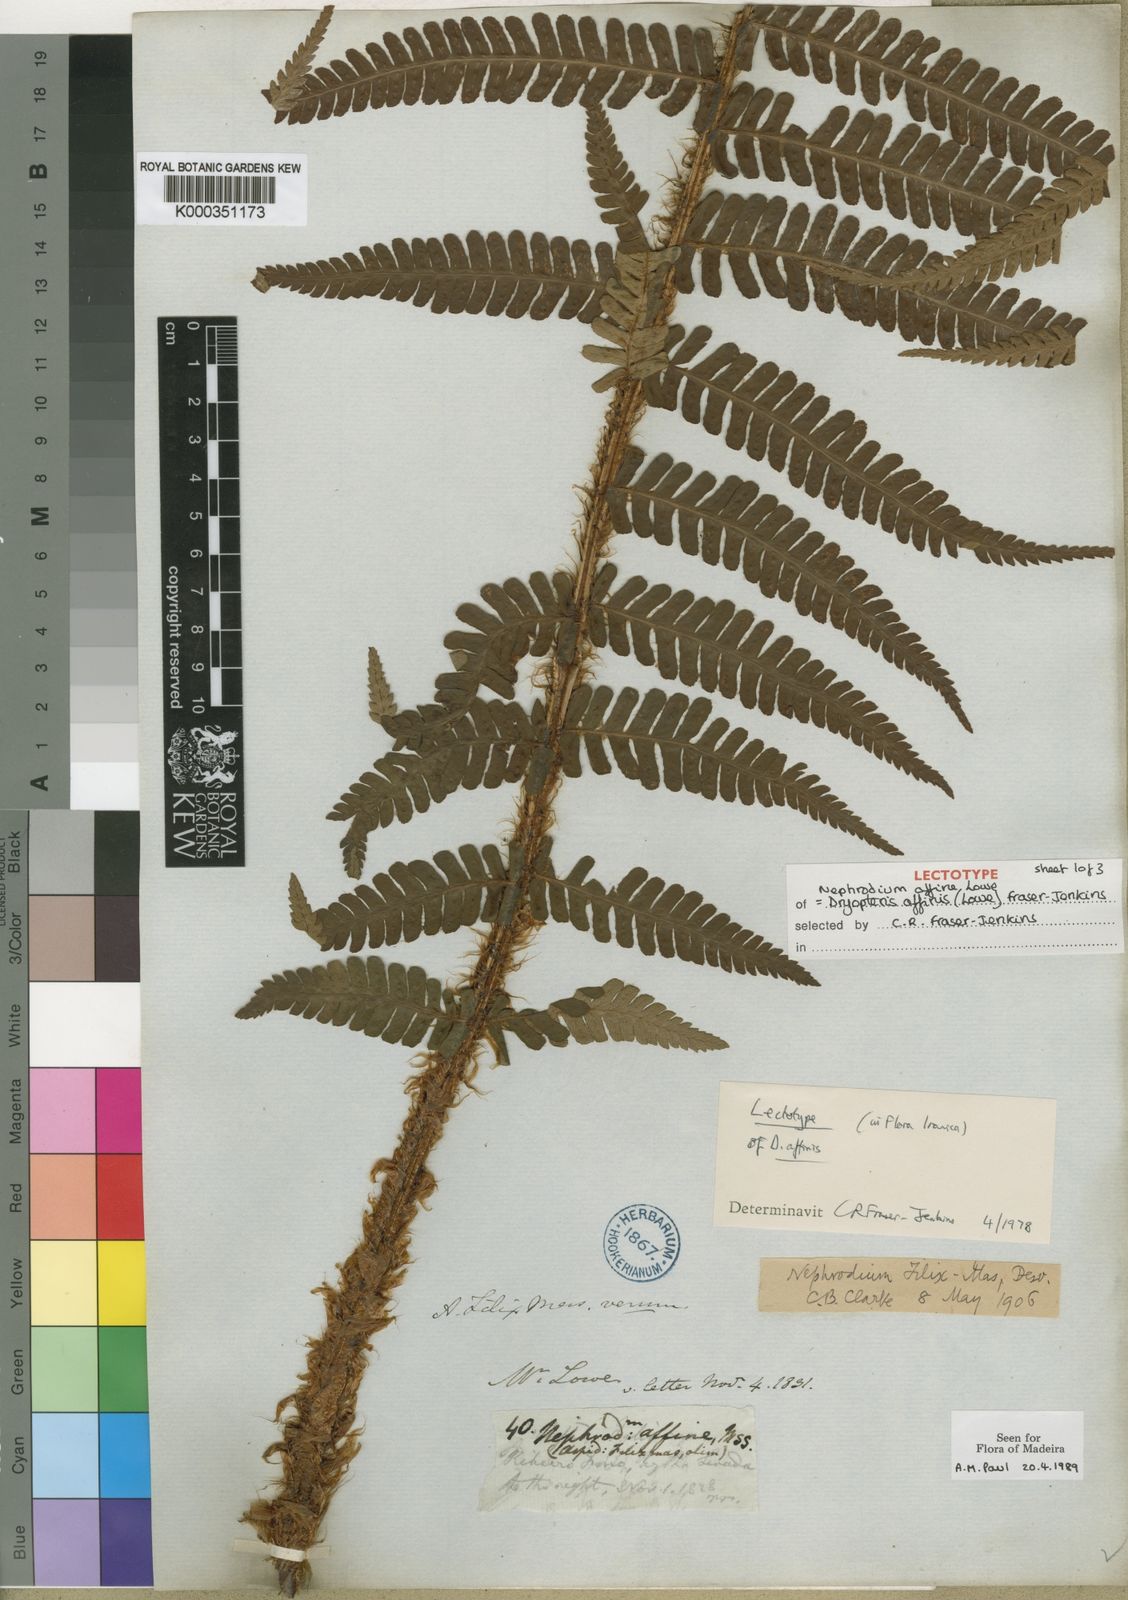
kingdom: Plantae
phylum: Tracheophyta
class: Polypodiopsida
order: Polypodiales
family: Dryopteridaceae
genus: Dryopteris
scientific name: Dryopteris affinis
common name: Scaly male fern
